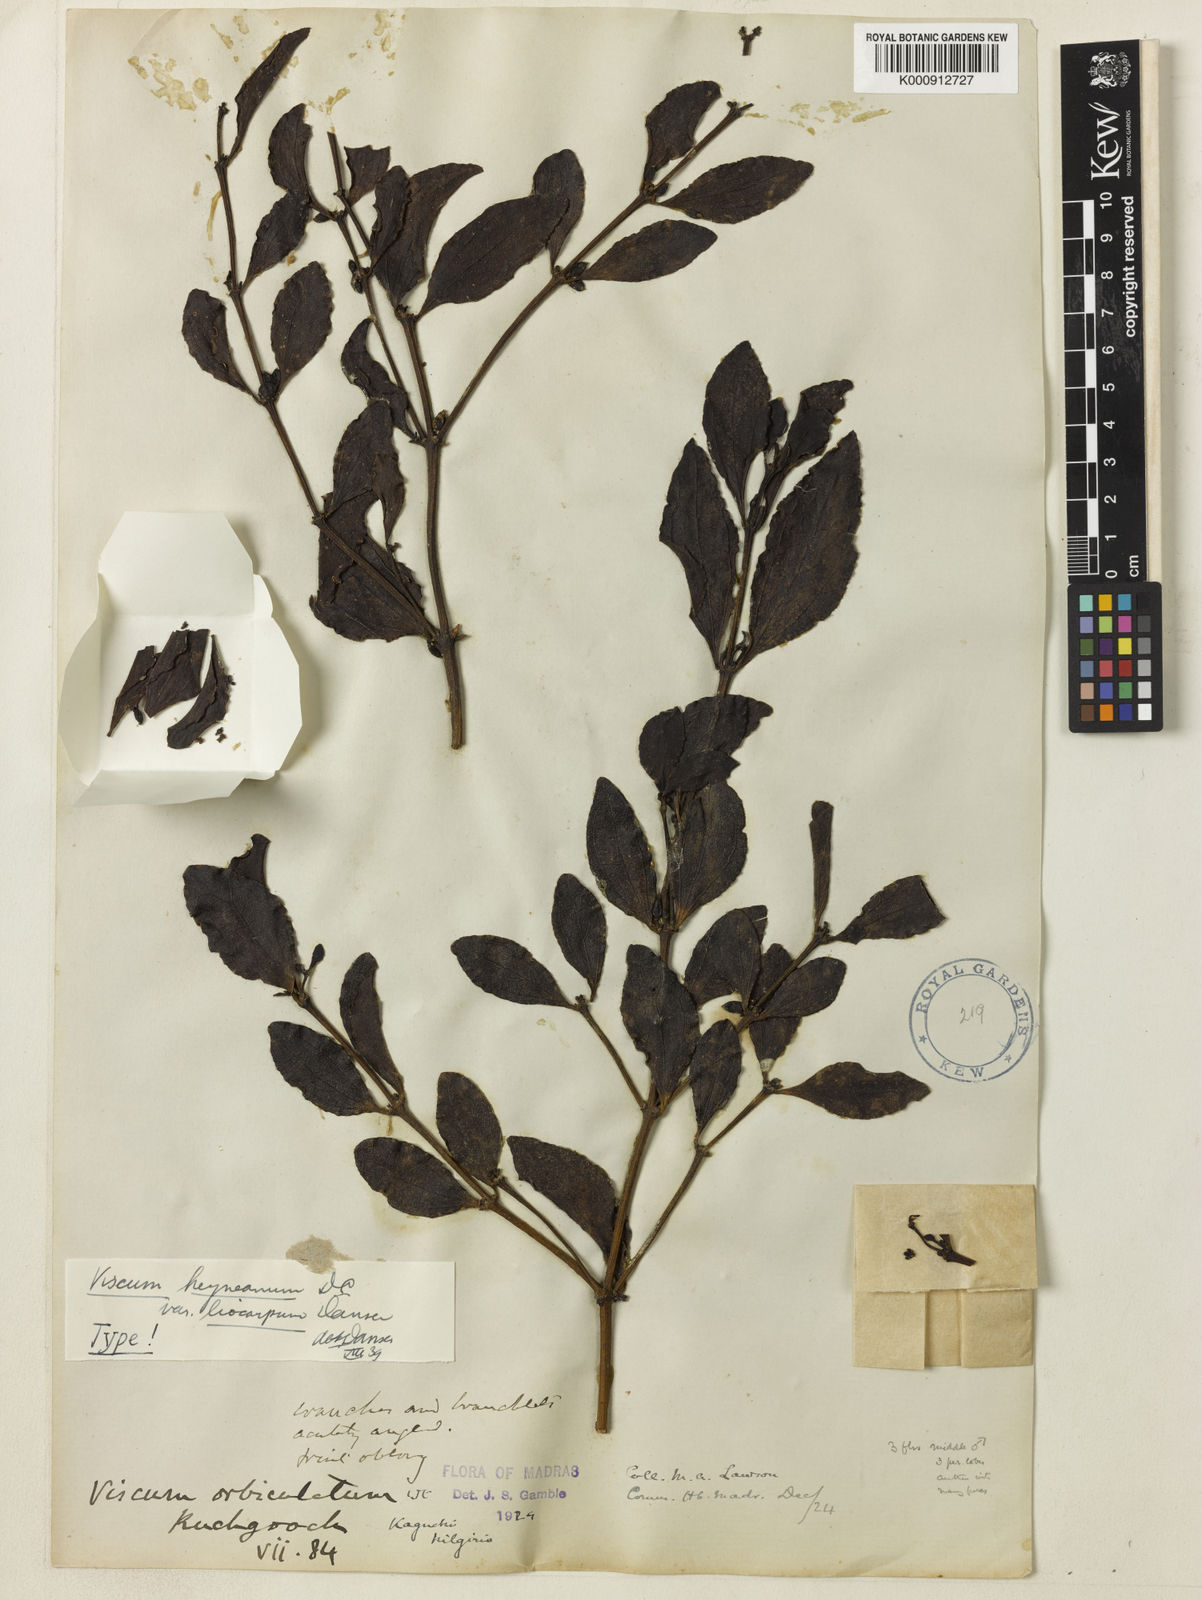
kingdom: Plantae
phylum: Tracheophyta
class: Magnoliopsida
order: Santalales
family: Viscaceae
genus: Viscum
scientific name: Viscum heyneanum
